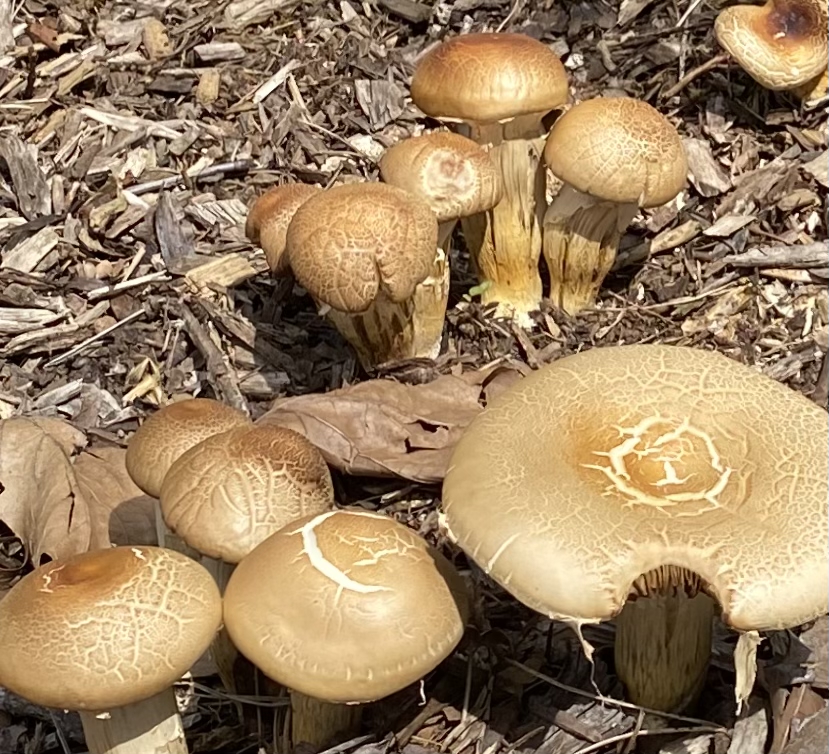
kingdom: Fungi
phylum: Basidiomycota
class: Agaricomycetes
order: Agaricales
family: Strophariaceae
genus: Agrocybe
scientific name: Agrocybe
